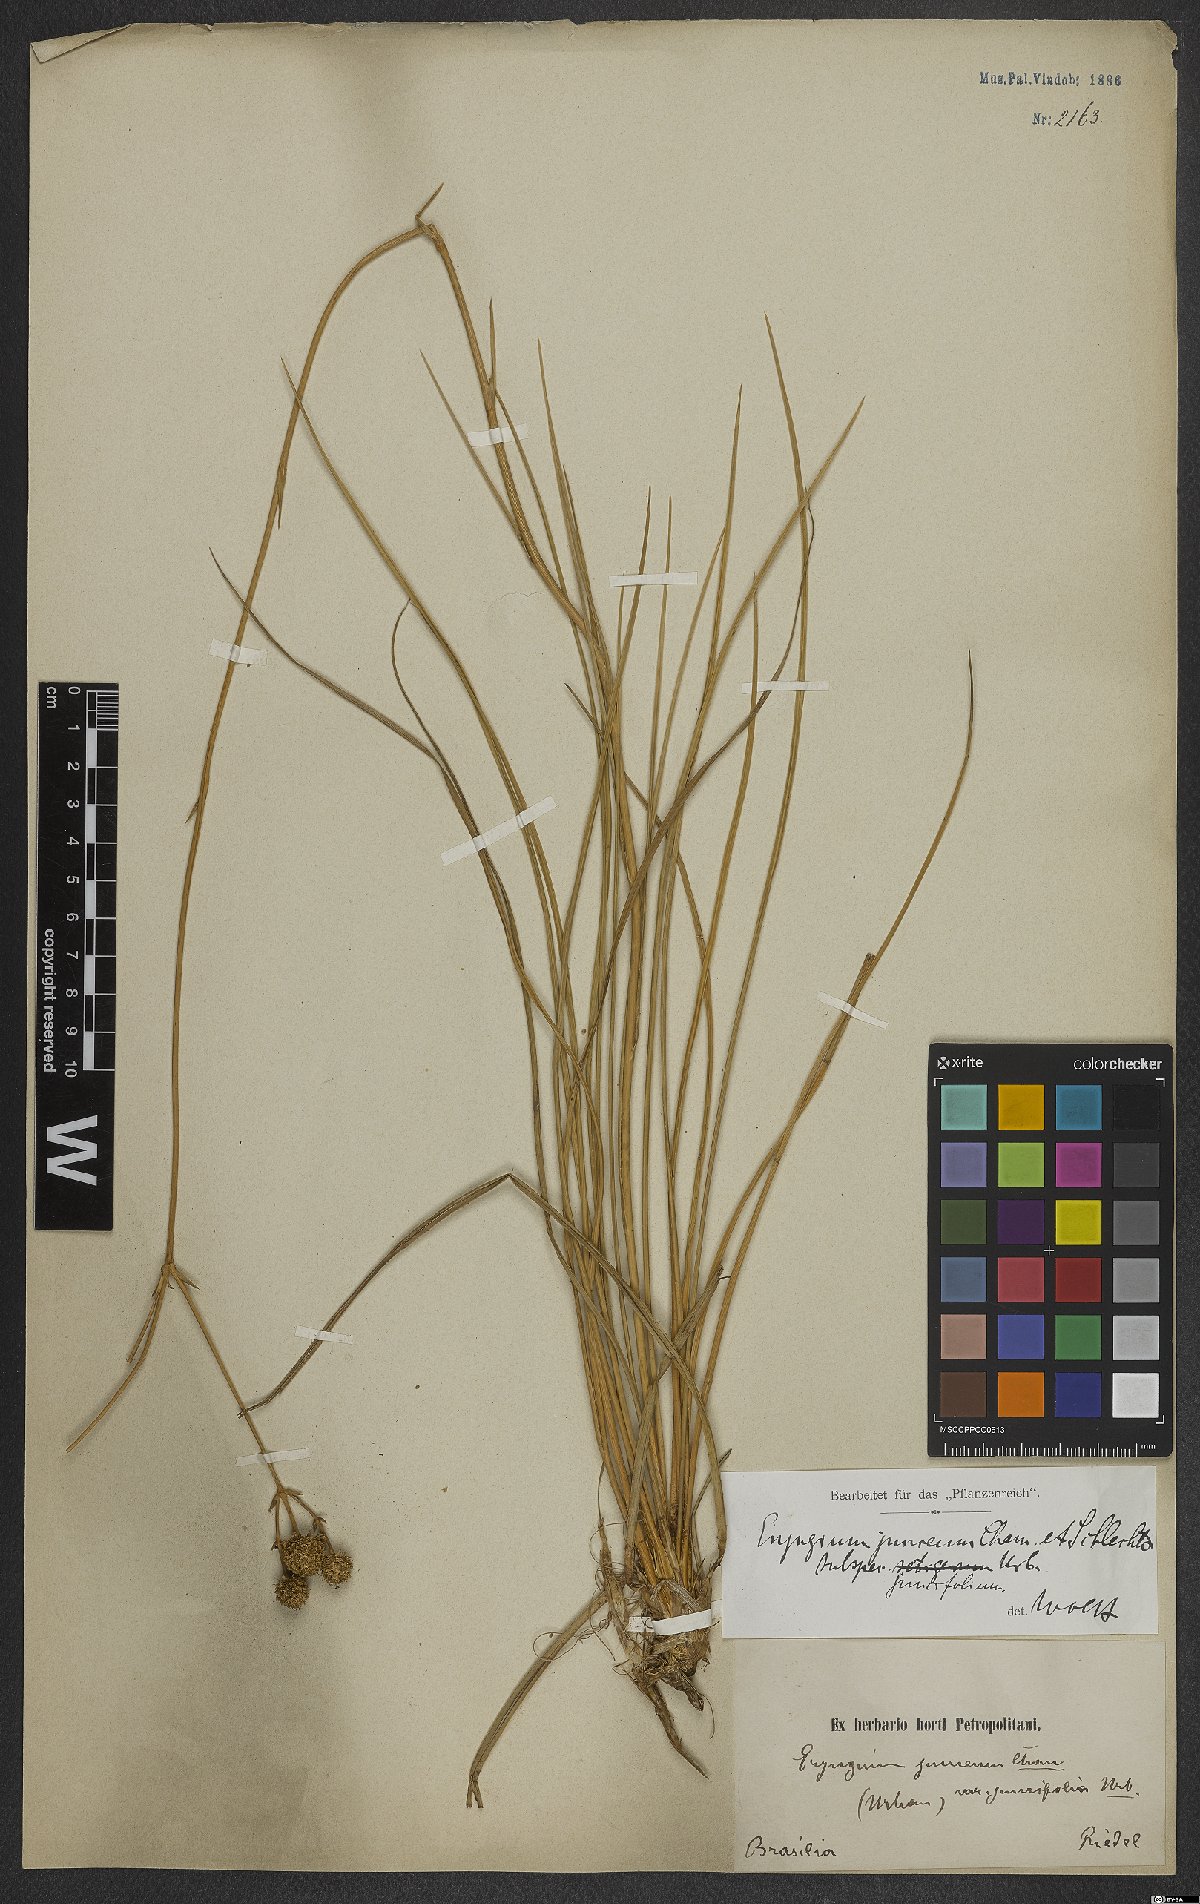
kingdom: Plantae
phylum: Tracheophyta
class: Magnoliopsida
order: Apiales
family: Apiaceae
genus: Eryngium
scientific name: Eryngium juncifolium
